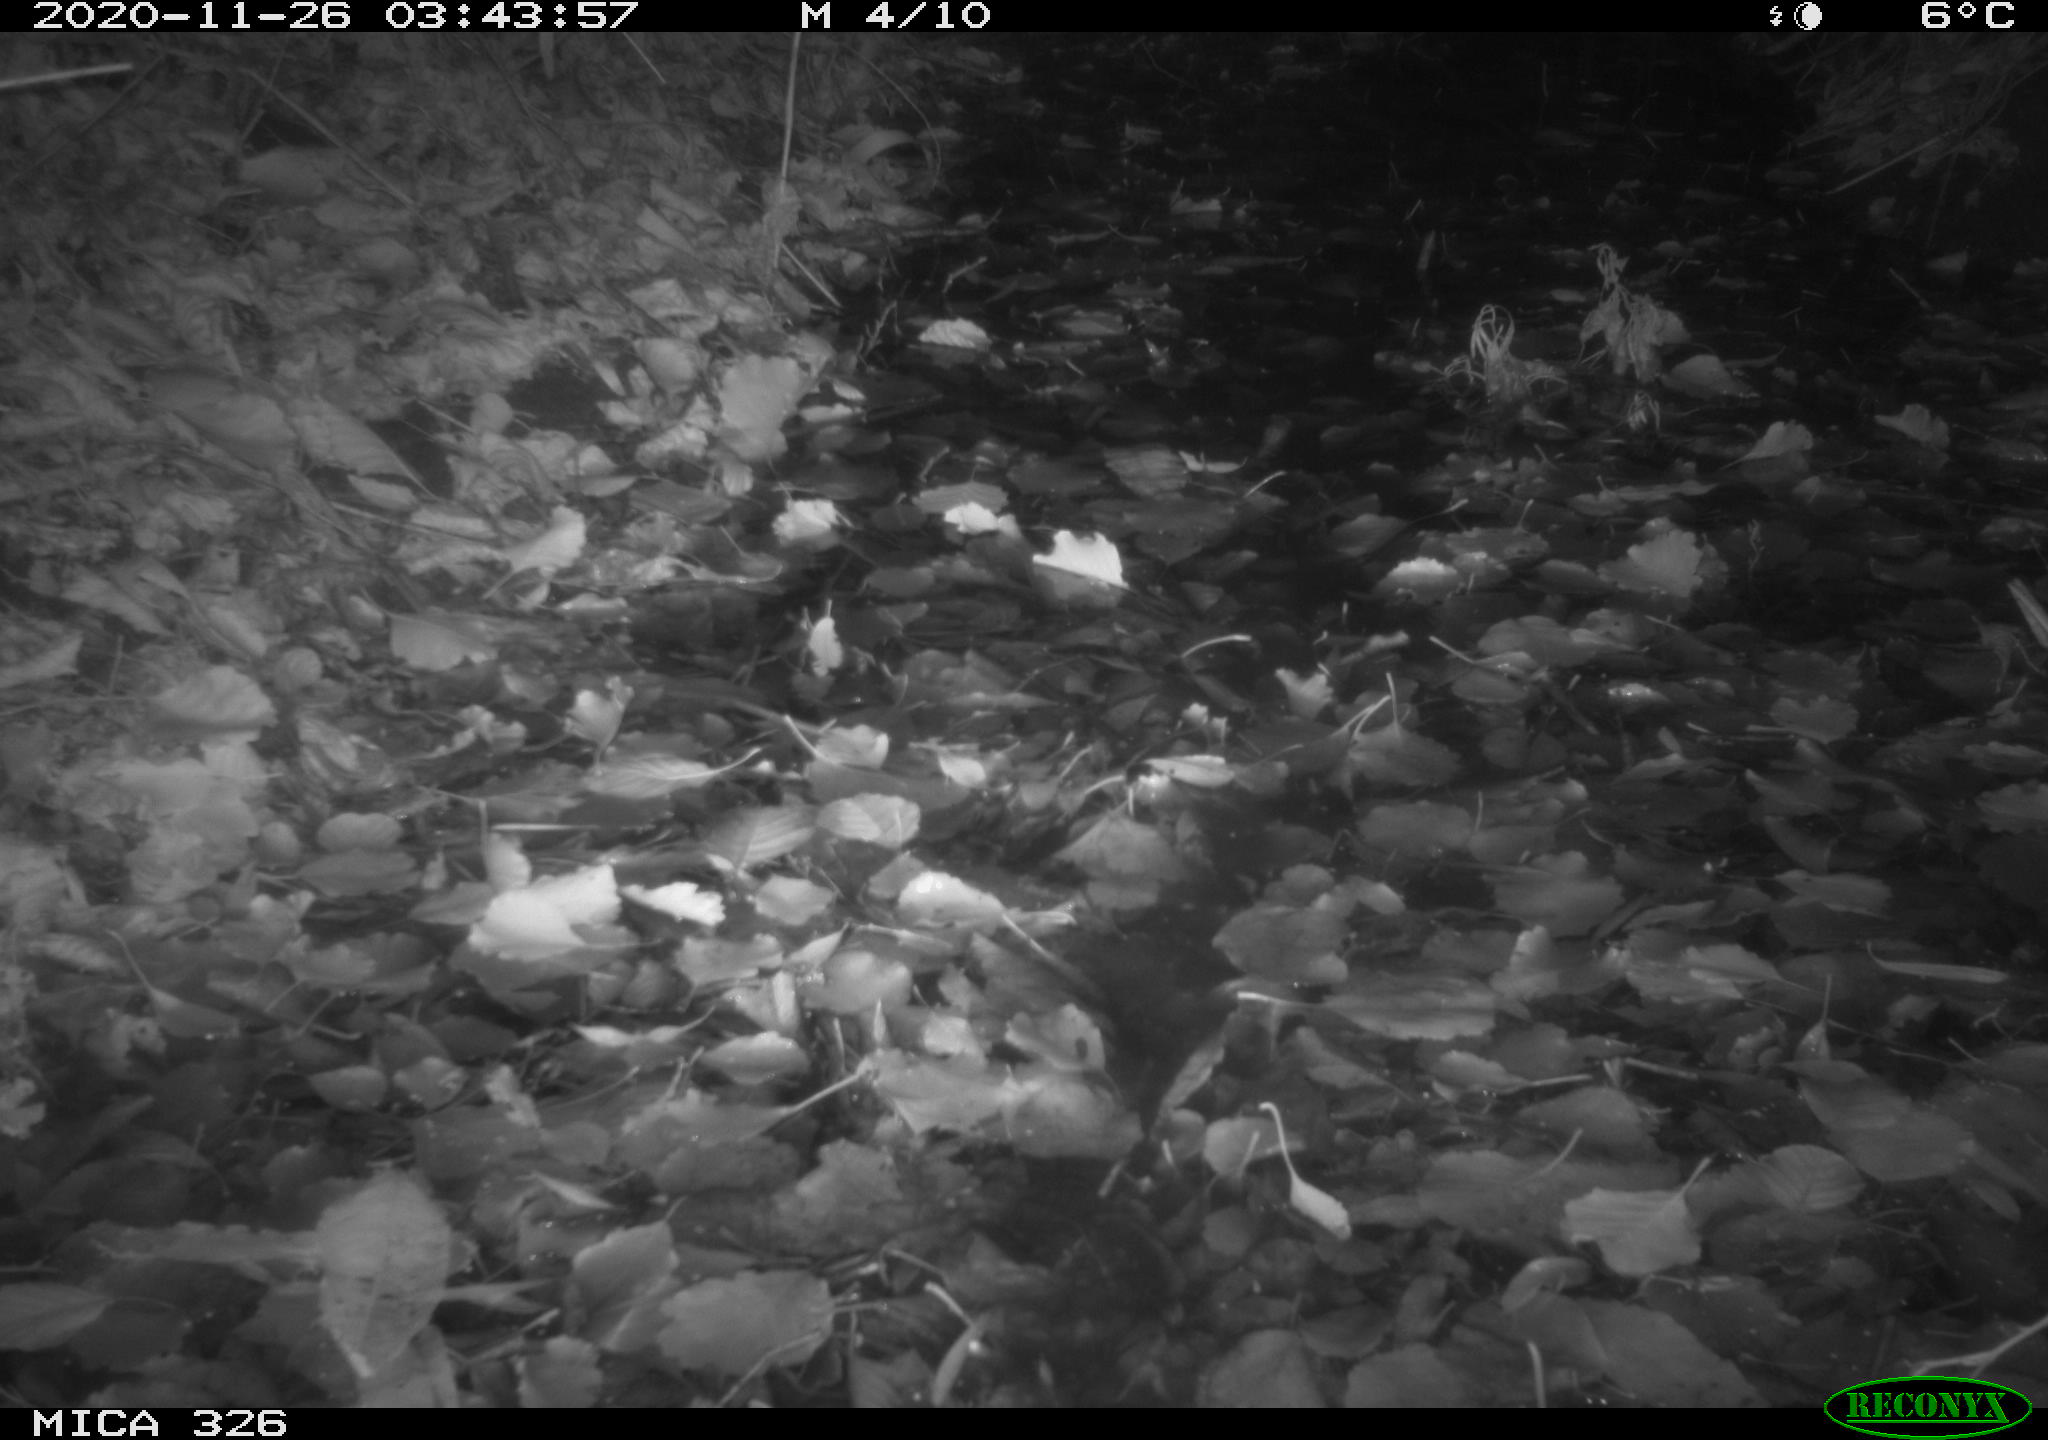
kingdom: Animalia
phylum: Chordata
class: Mammalia
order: Rodentia
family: Myocastoridae
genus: Myocastor
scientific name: Myocastor coypus
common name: Coypu
